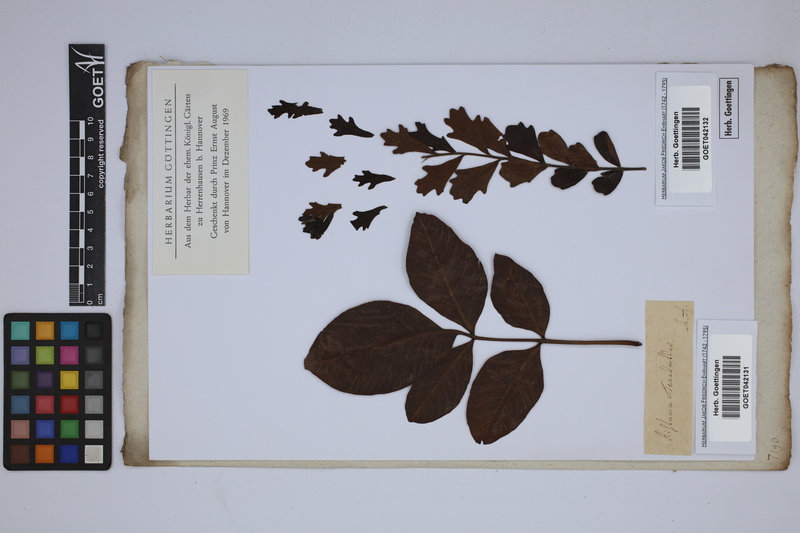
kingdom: Plantae
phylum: Tracheophyta
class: Magnoliopsida
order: Sapindales
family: Anacardiaceae
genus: Pistacia
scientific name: Pistacia terebinthus
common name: Terebinth
